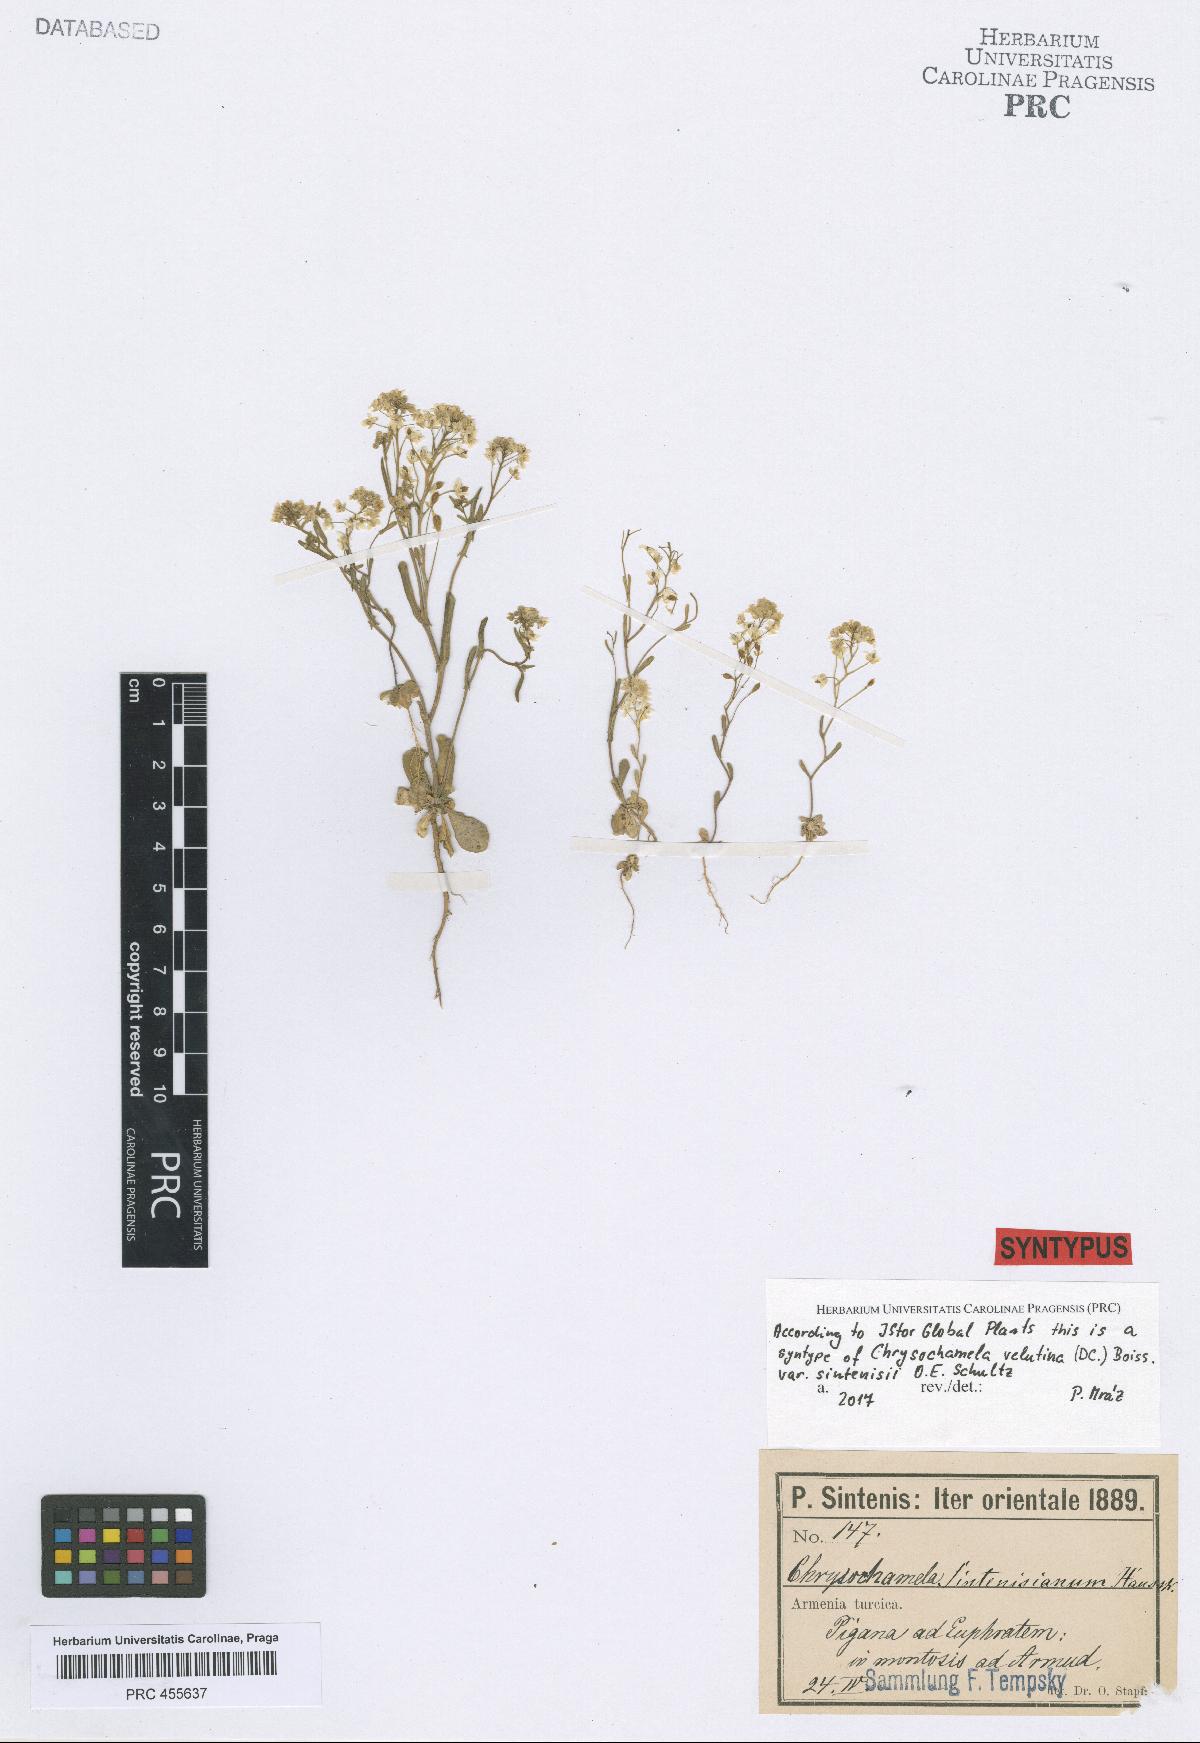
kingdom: Plantae
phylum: Tracheophyta
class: Magnoliopsida
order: Brassicales
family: Brassicaceae
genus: Chrysochamela
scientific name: Chrysochamela velutina
